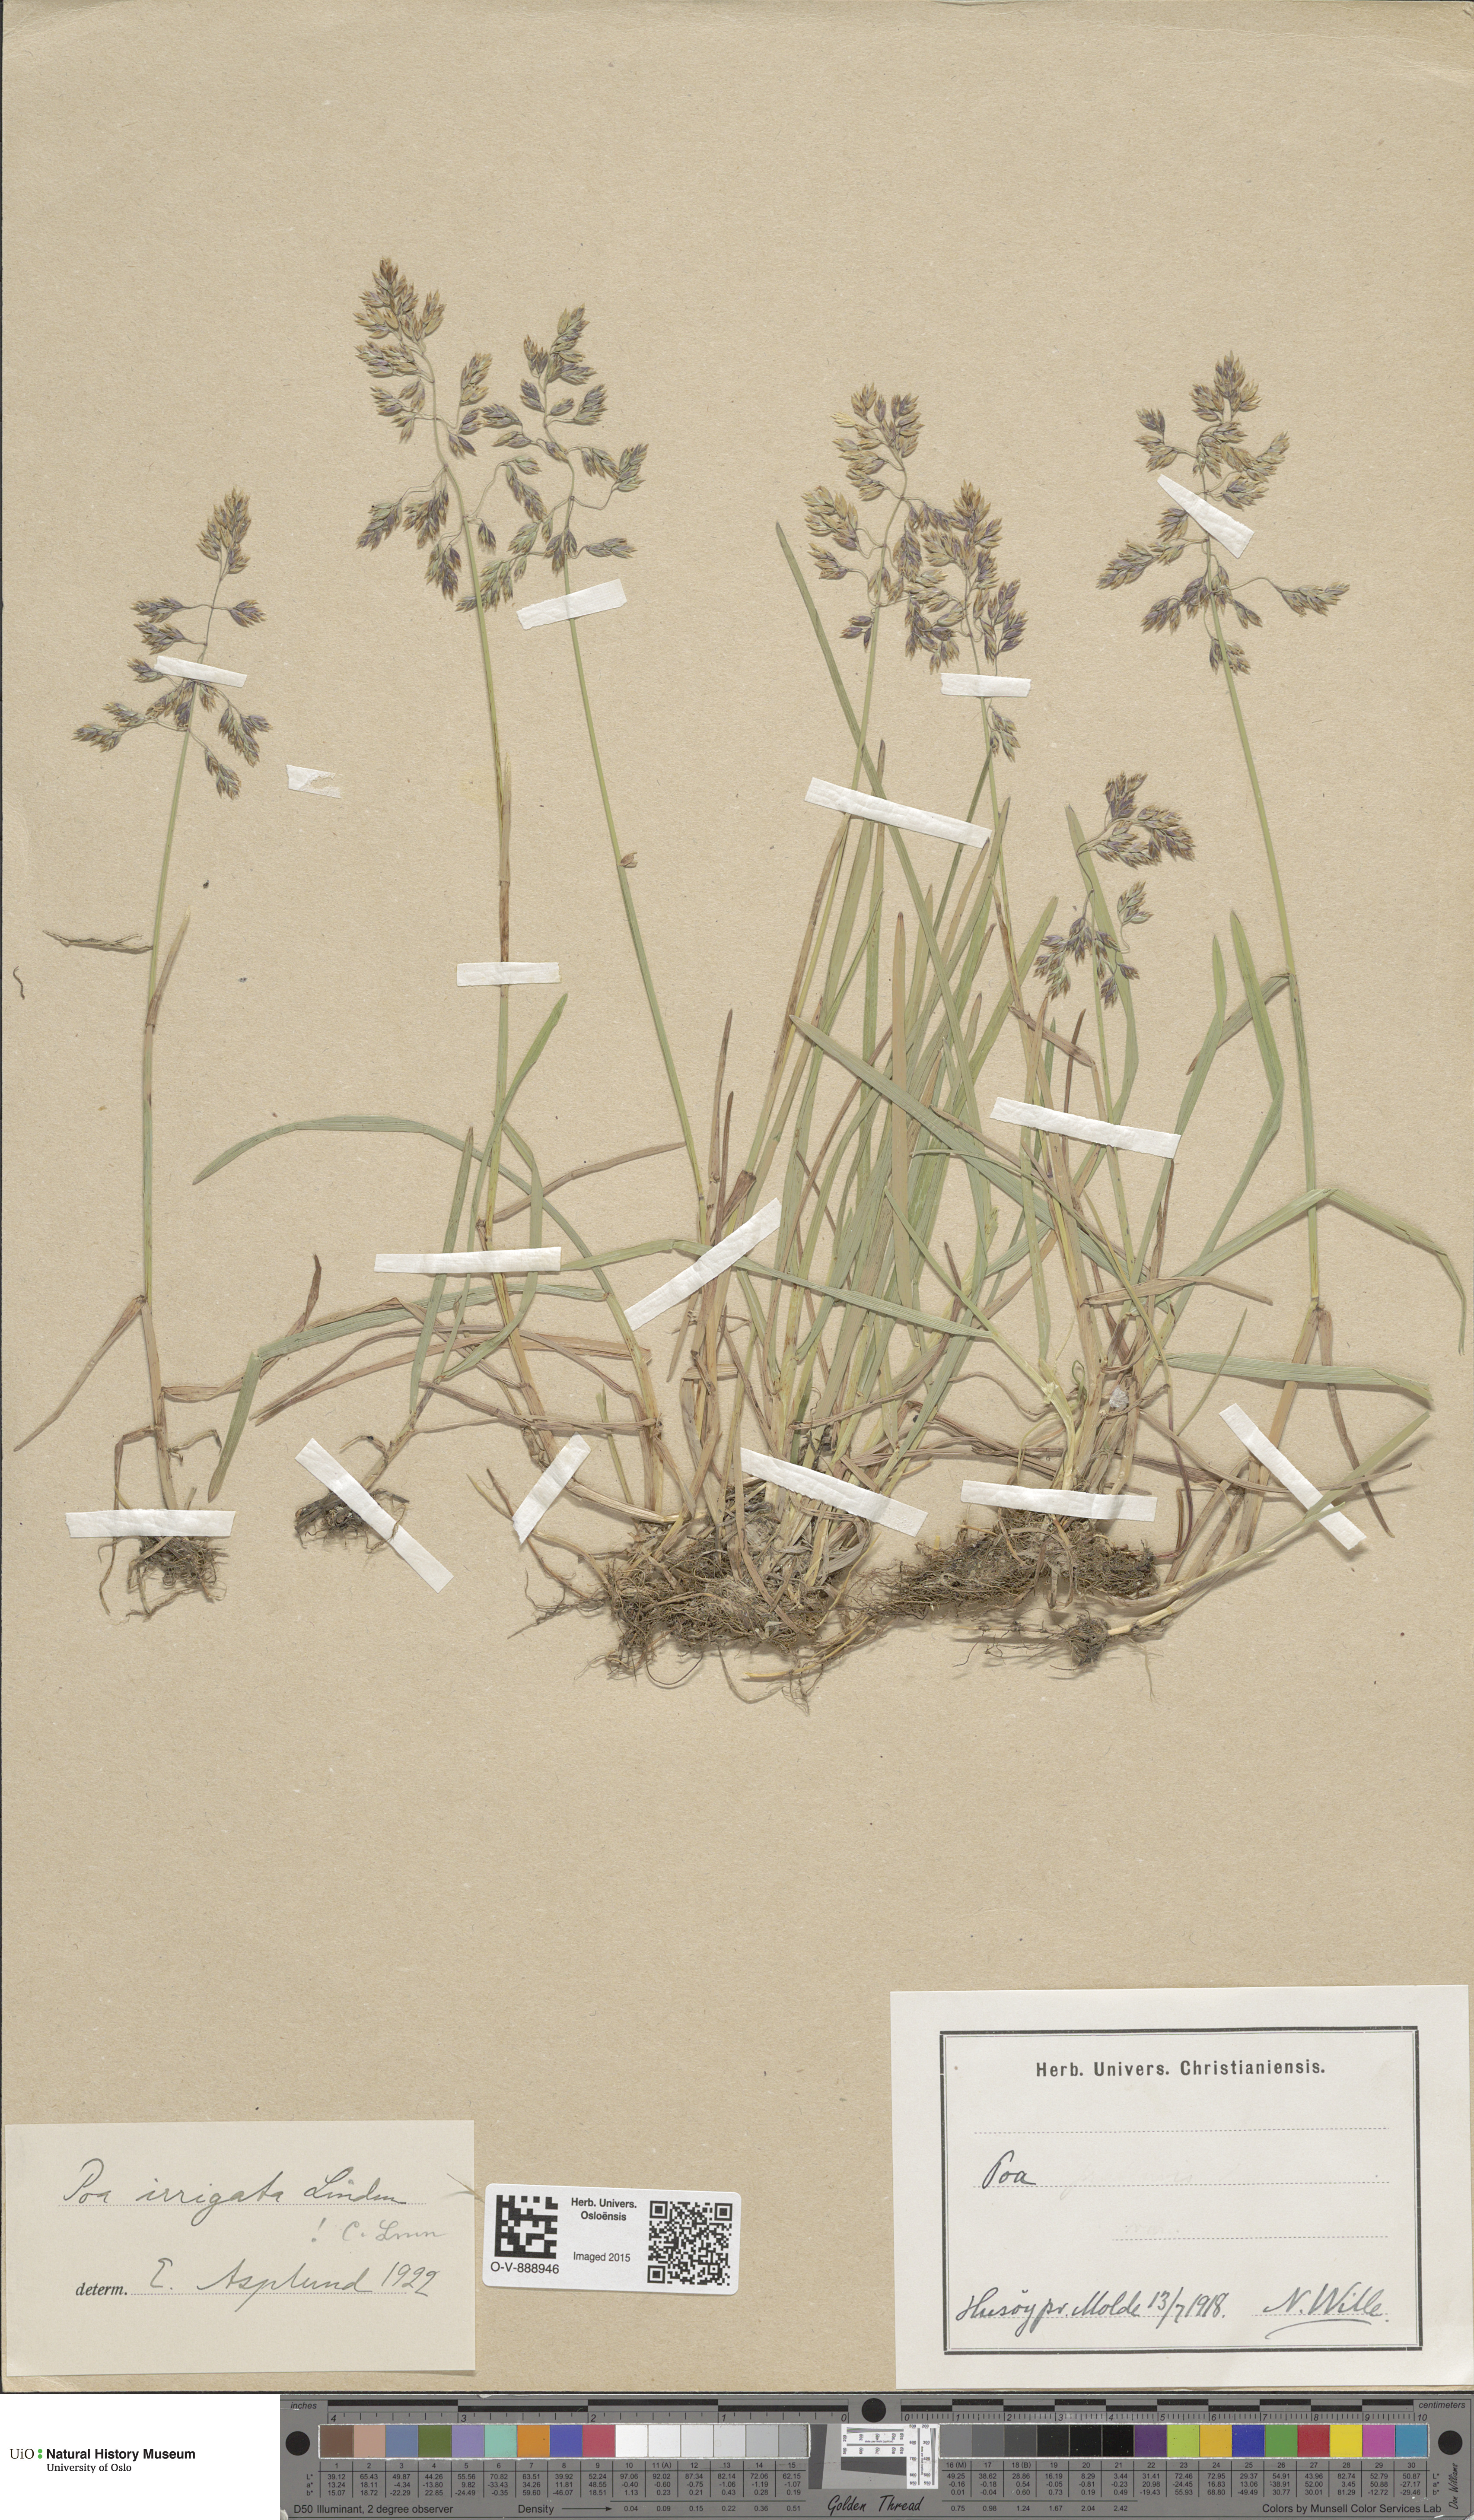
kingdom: Plantae
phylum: Tracheophyta
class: Liliopsida
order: Poales
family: Poaceae
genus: Poa
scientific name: Poa humilis
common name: Spreading meadow-grass
